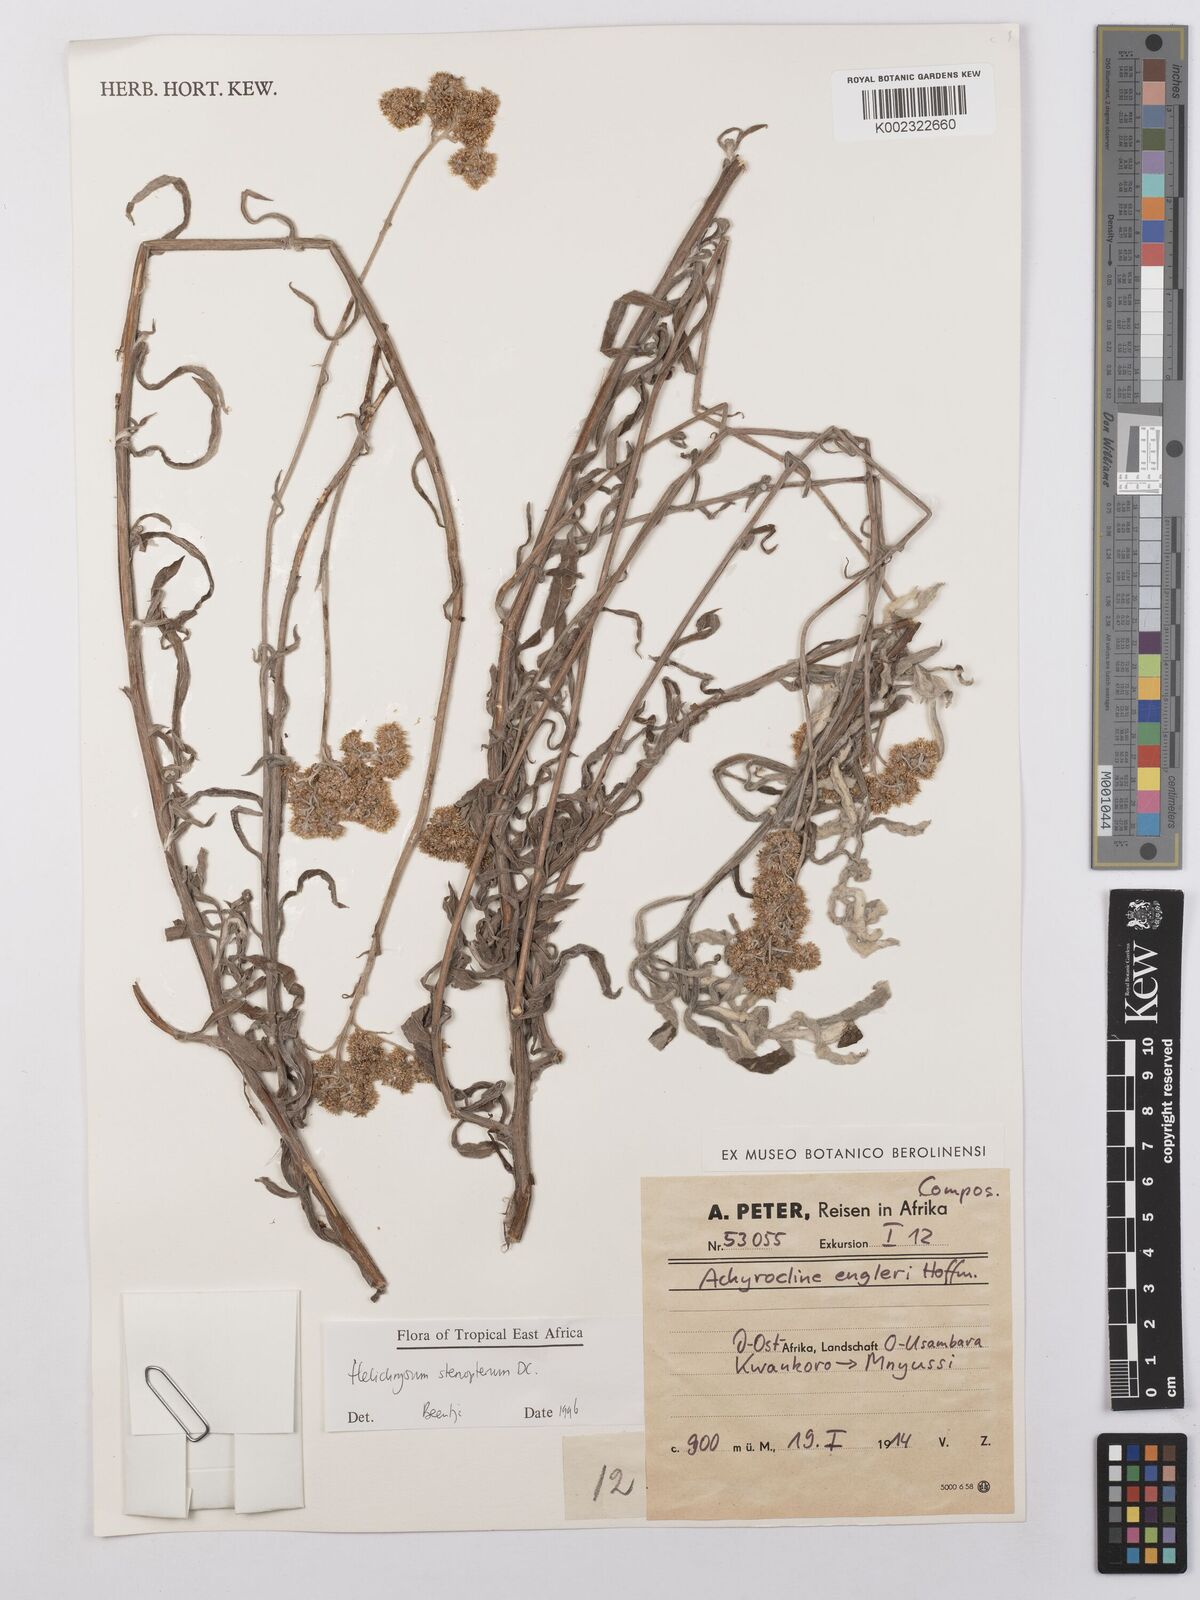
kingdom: Plantae
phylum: Tracheophyta
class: Magnoliopsida
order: Asterales
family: Asteraceae
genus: Helichrysum
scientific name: Helichrysum stenopterum
